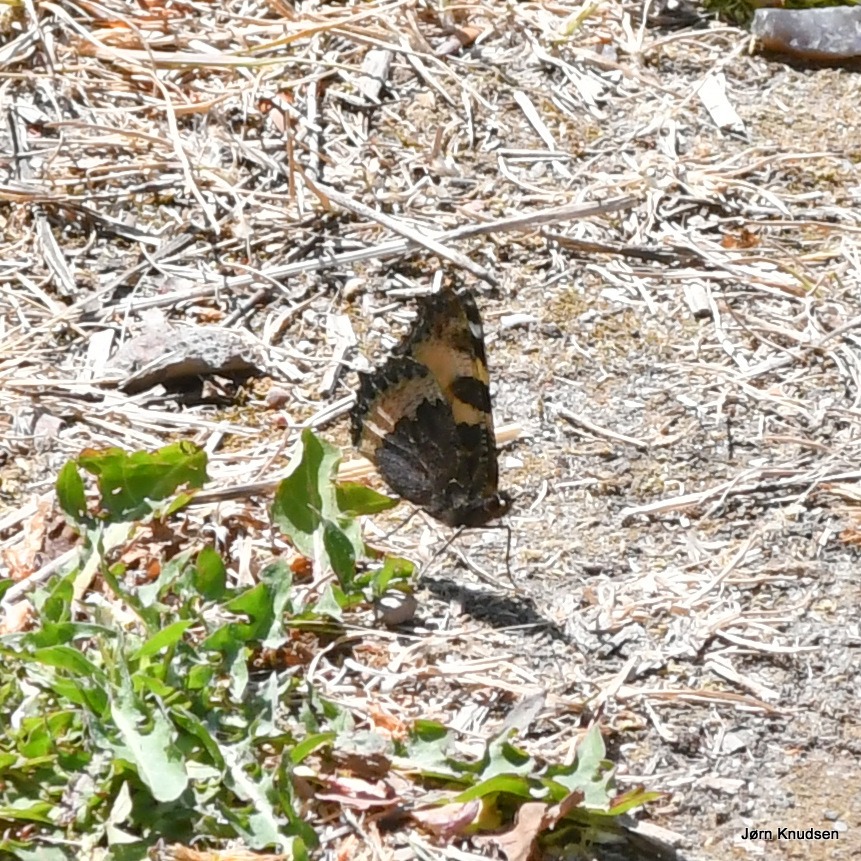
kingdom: Animalia
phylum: Arthropoda
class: Insecta
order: Lepidoptera
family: Nymphalidae
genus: Aglais
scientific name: Aglais urticae
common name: Nældens takvinge
